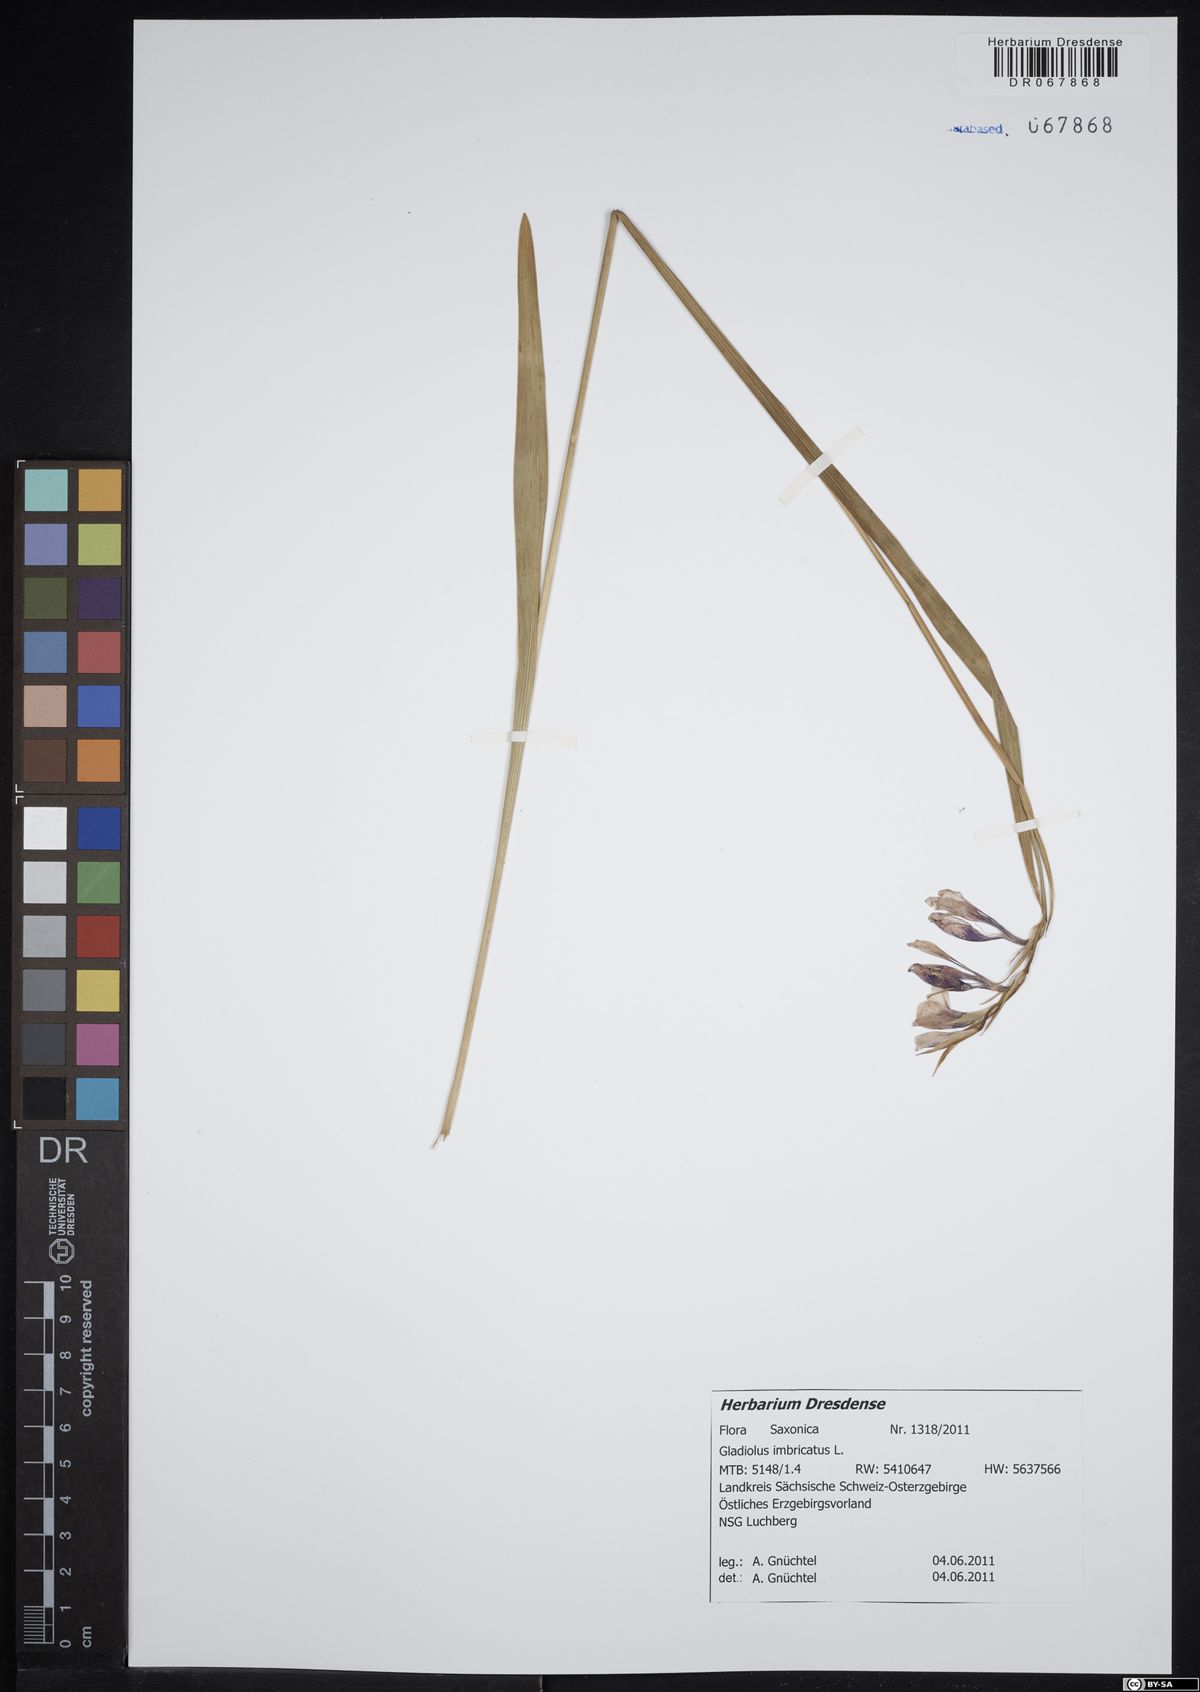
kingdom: Plantae
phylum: Tracheophyta
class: Liliopsida
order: Asparagales
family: Iridaceae
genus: Gladiolus
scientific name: Gladiolus imbricatus
